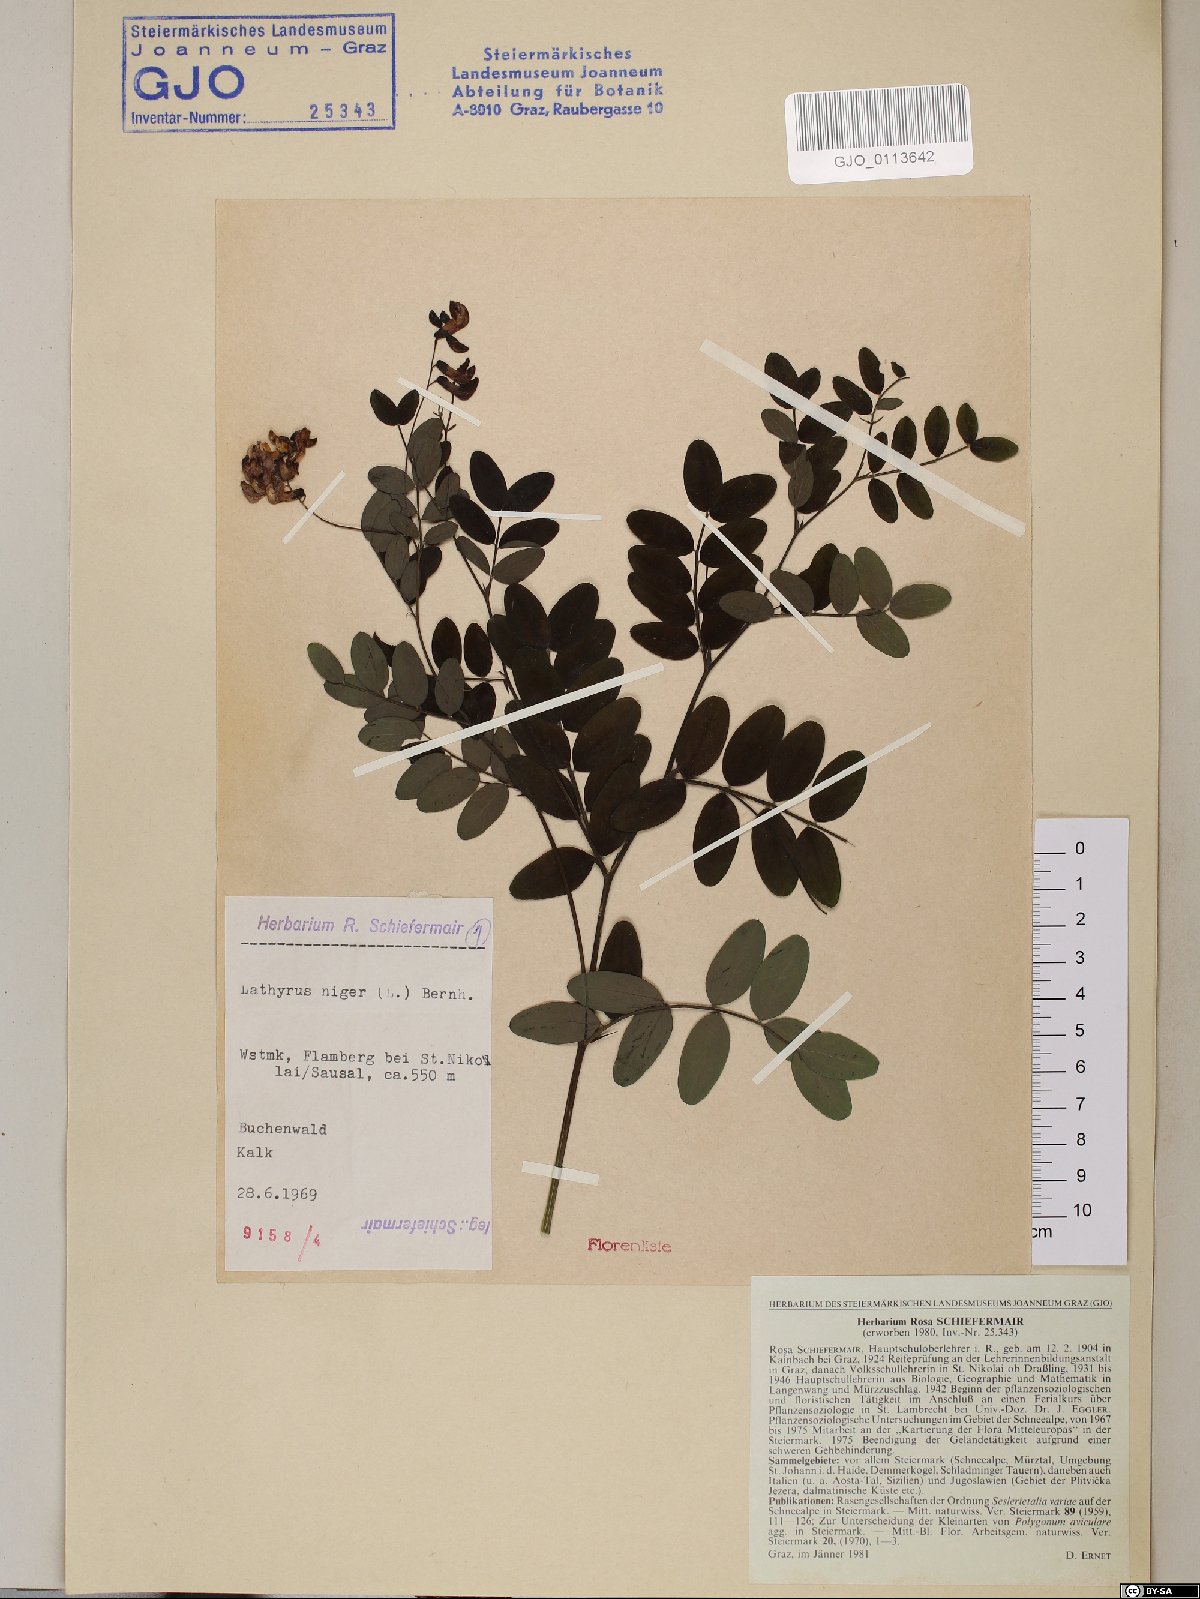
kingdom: Plantae
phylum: Tracheophyta
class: Magnoliopsida
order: Fabales
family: Fabaceae
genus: Lathyrus
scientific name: Lathyrus niger
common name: Black pea
